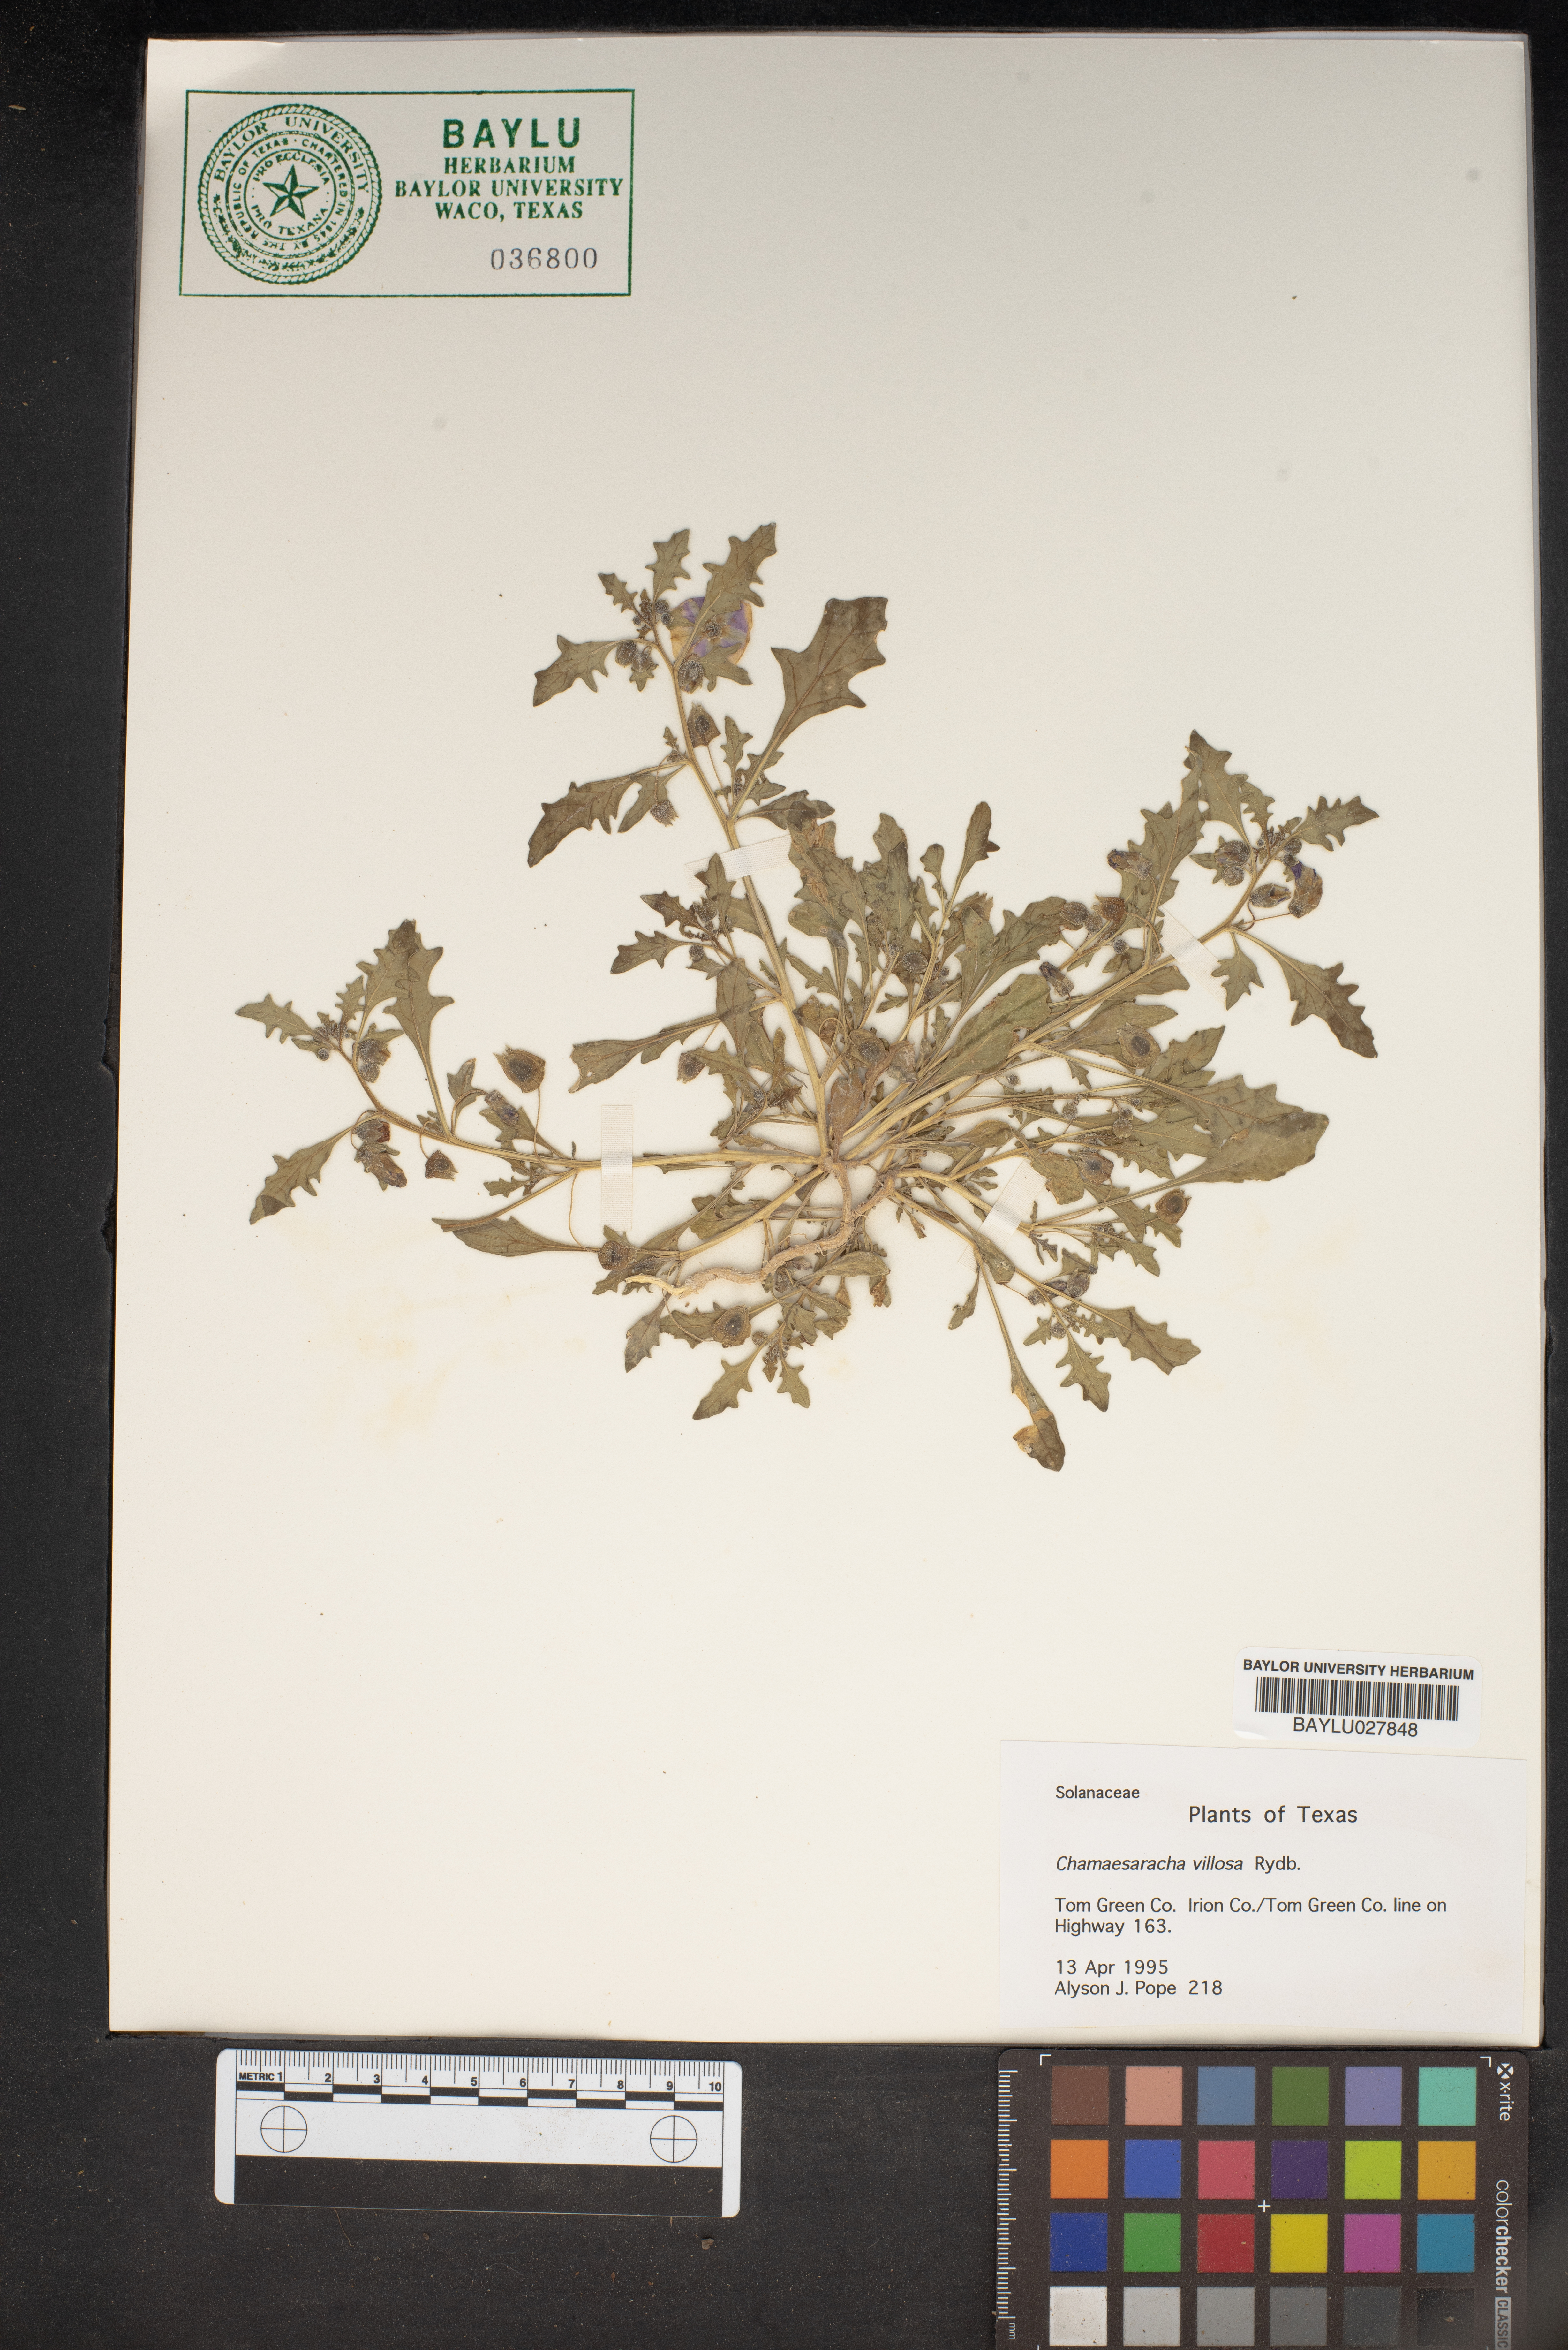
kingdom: Plantae
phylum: Tracheophyta
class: Magnoliopsida
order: Solanales
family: Solanaceae
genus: Chamaesaracha
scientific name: Chamaesaracha villosa
